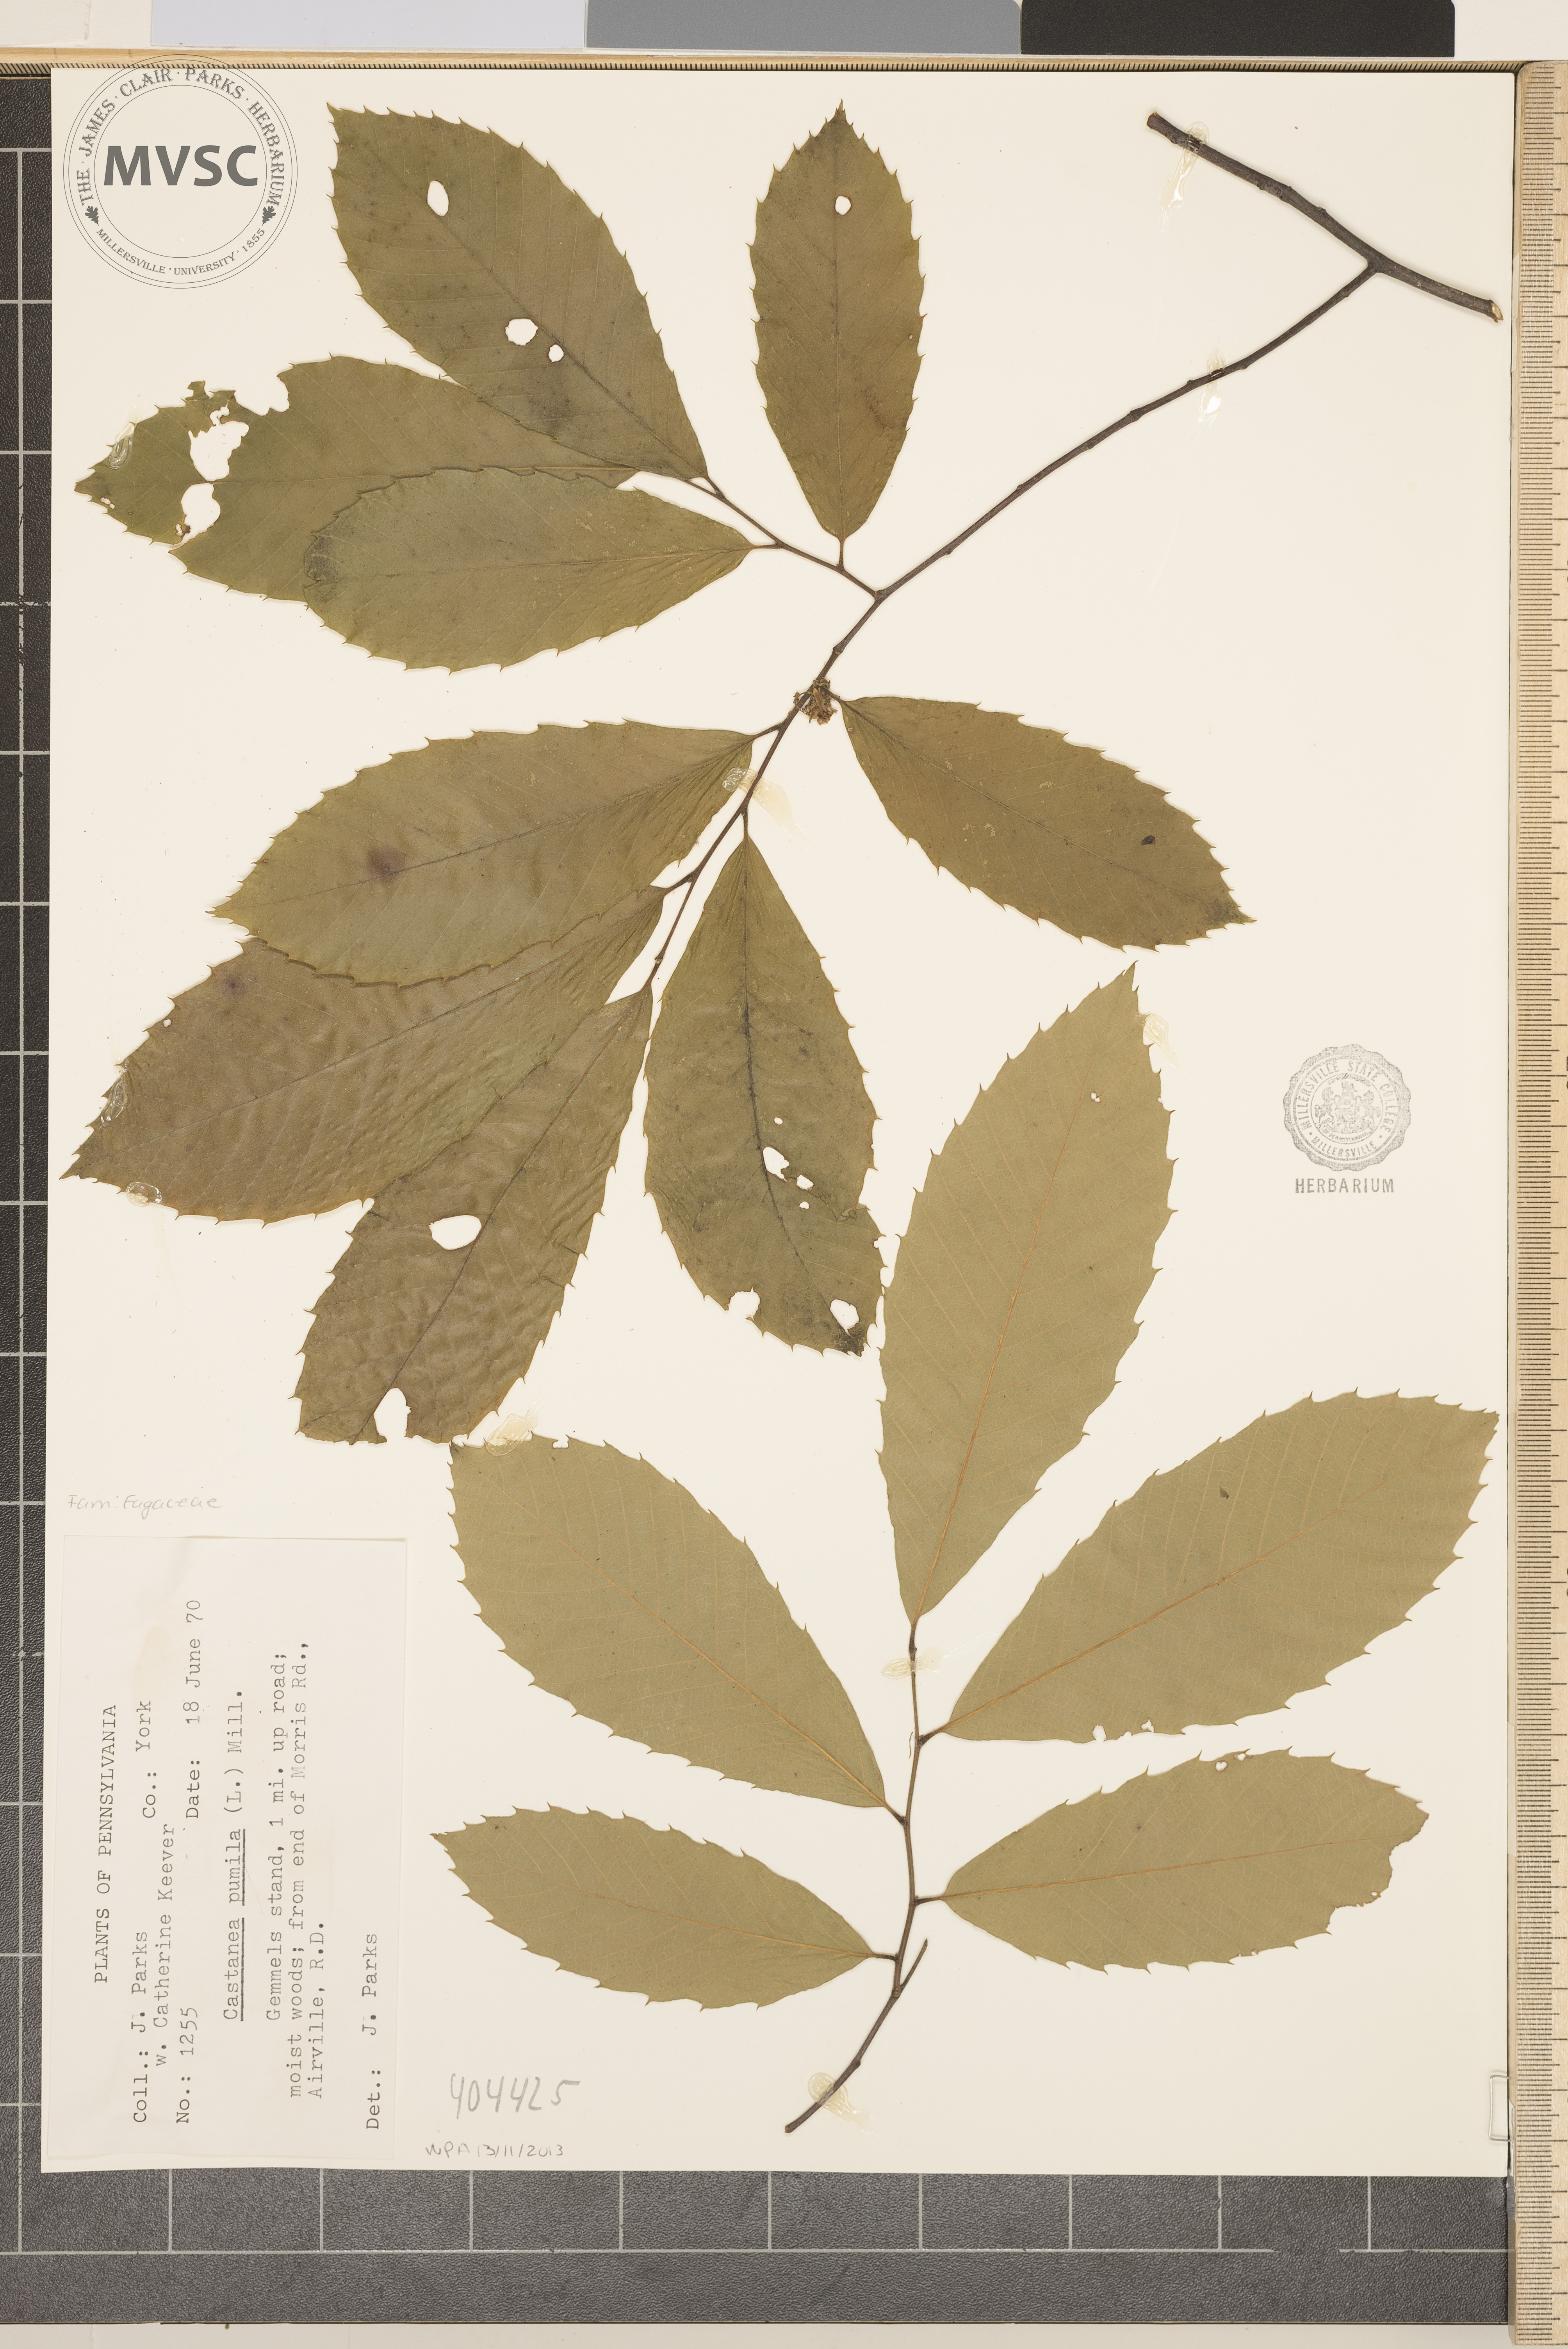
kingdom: Plantae
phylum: Tracheophyta
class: Magnoliopsida
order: Fagales
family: Fagaceae
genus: Castanea
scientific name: Castanea pumila
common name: Chinkapin
